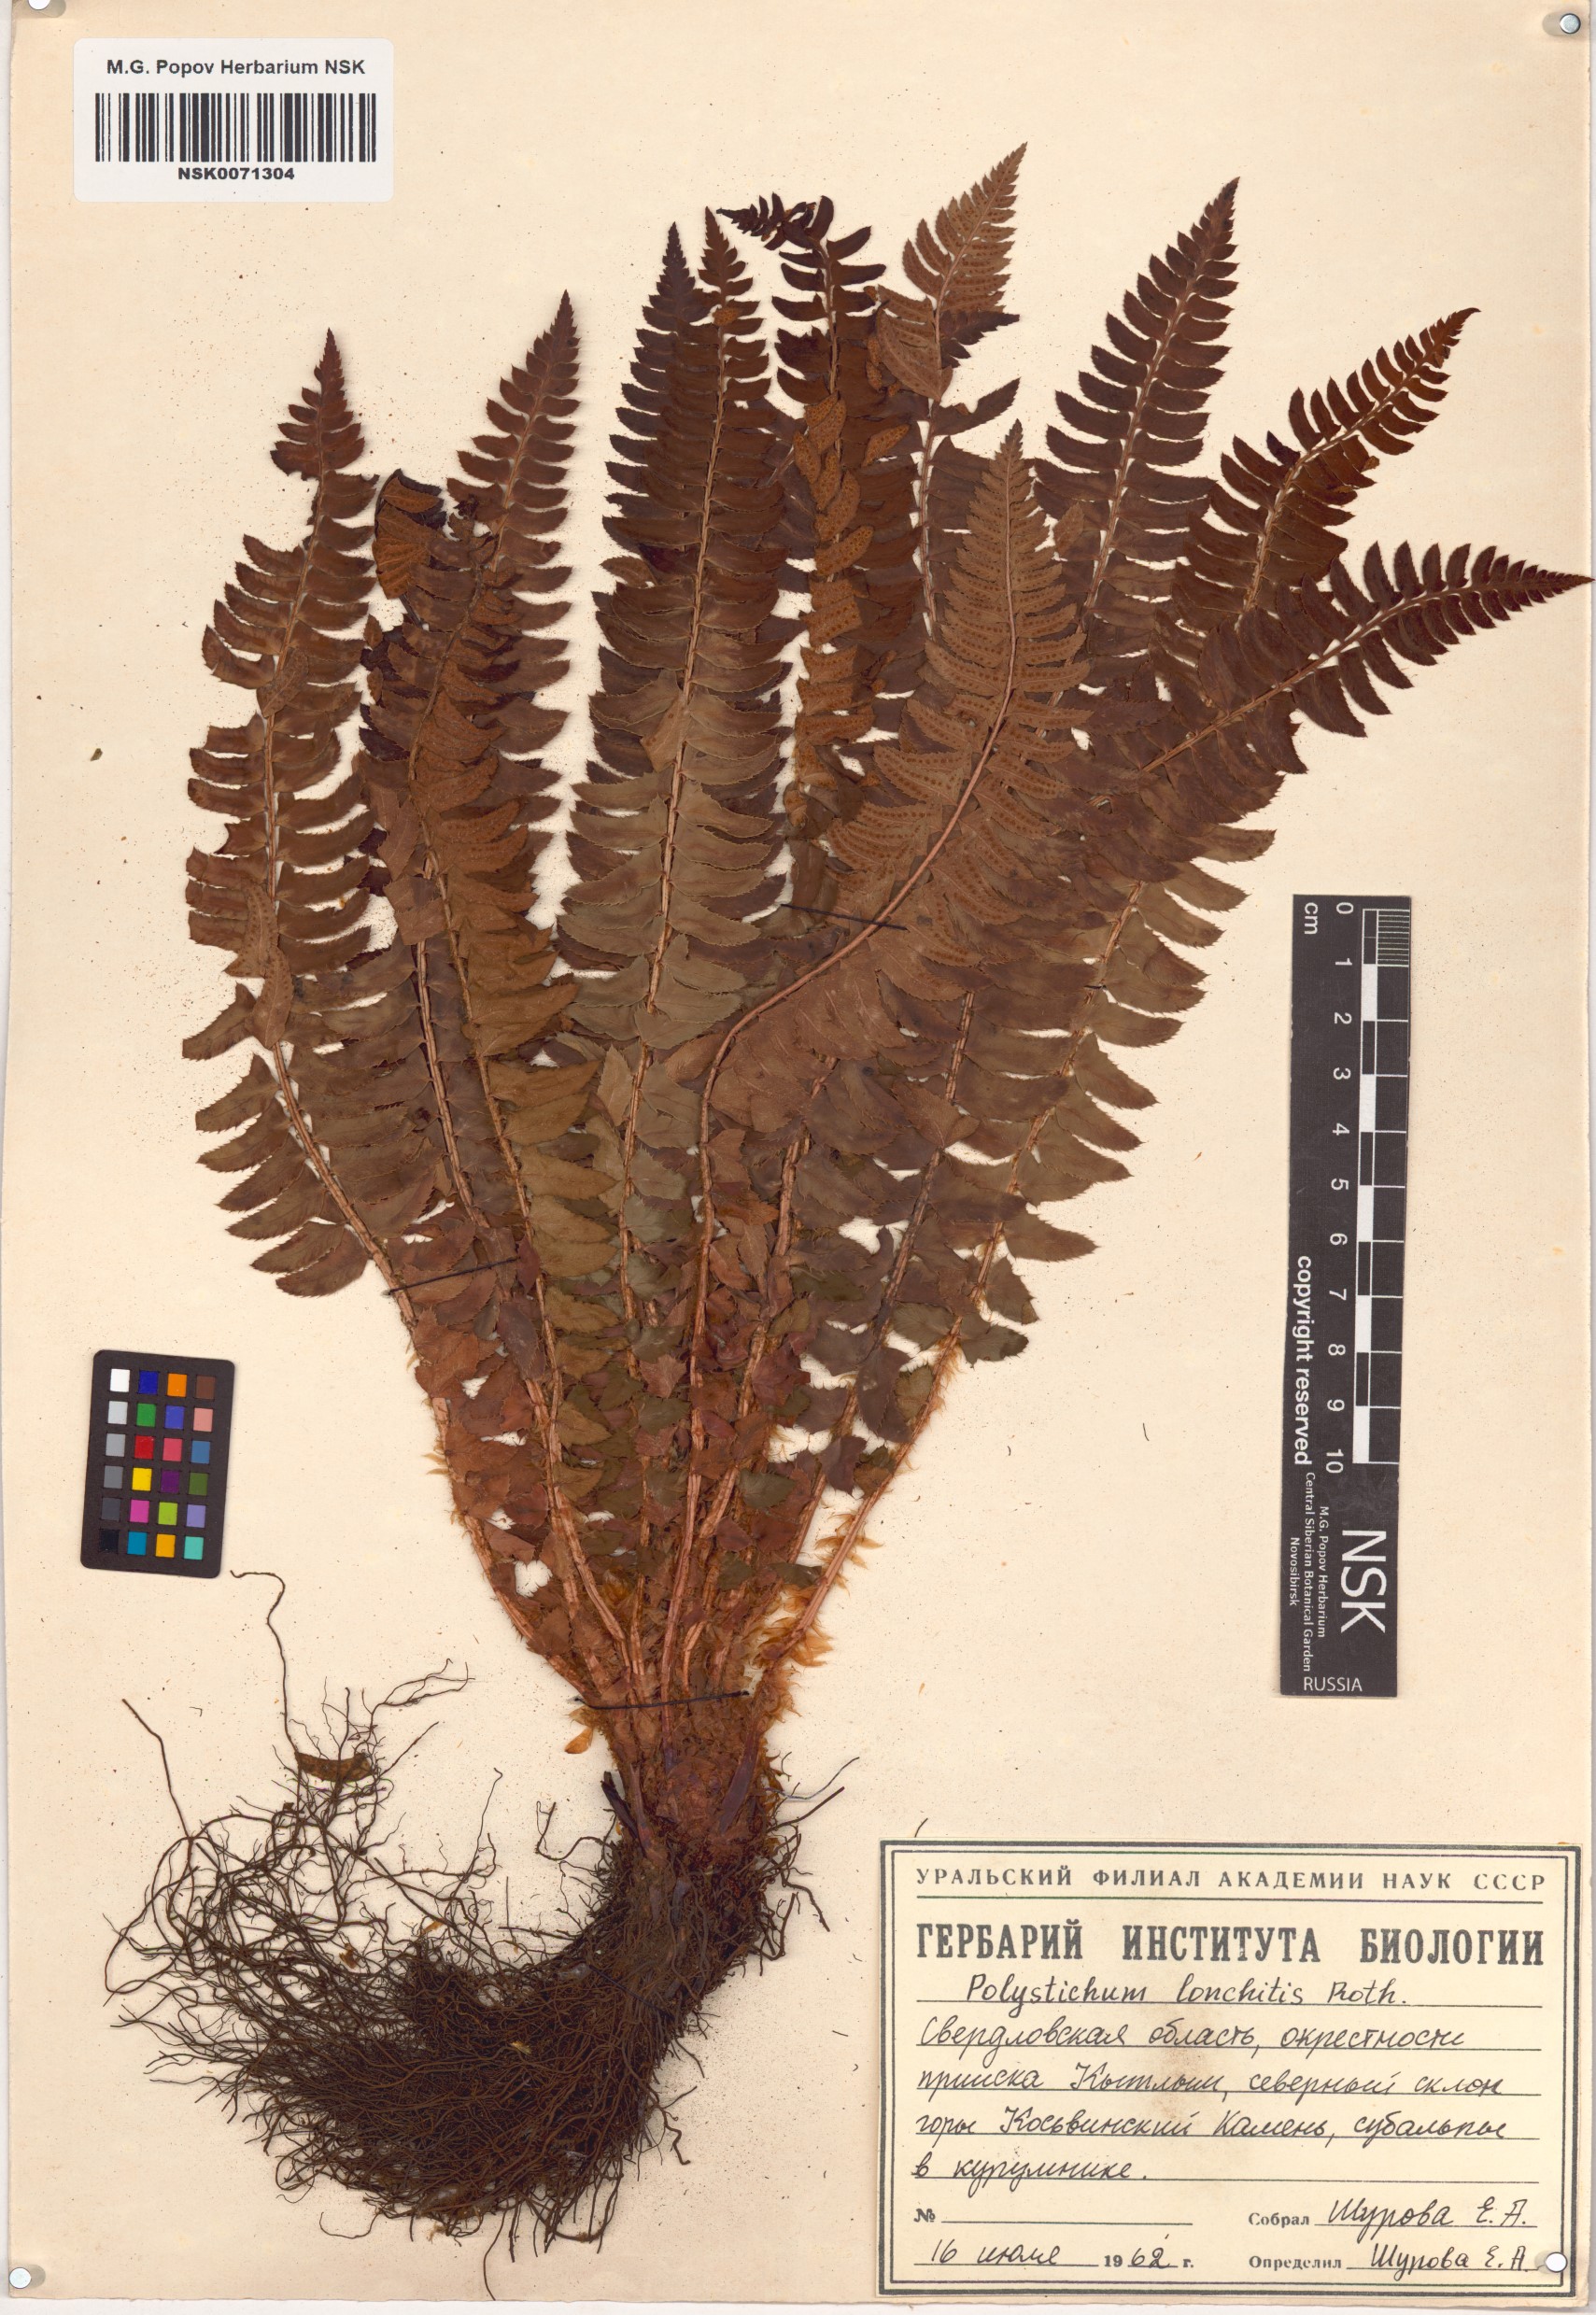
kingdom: Plantae
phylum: Tracheophyta
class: Polypodiopsida
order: Polypodiales
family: Dryopteridaceae
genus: Polystichum
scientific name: Polystichum lonchitis
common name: Holly fern
